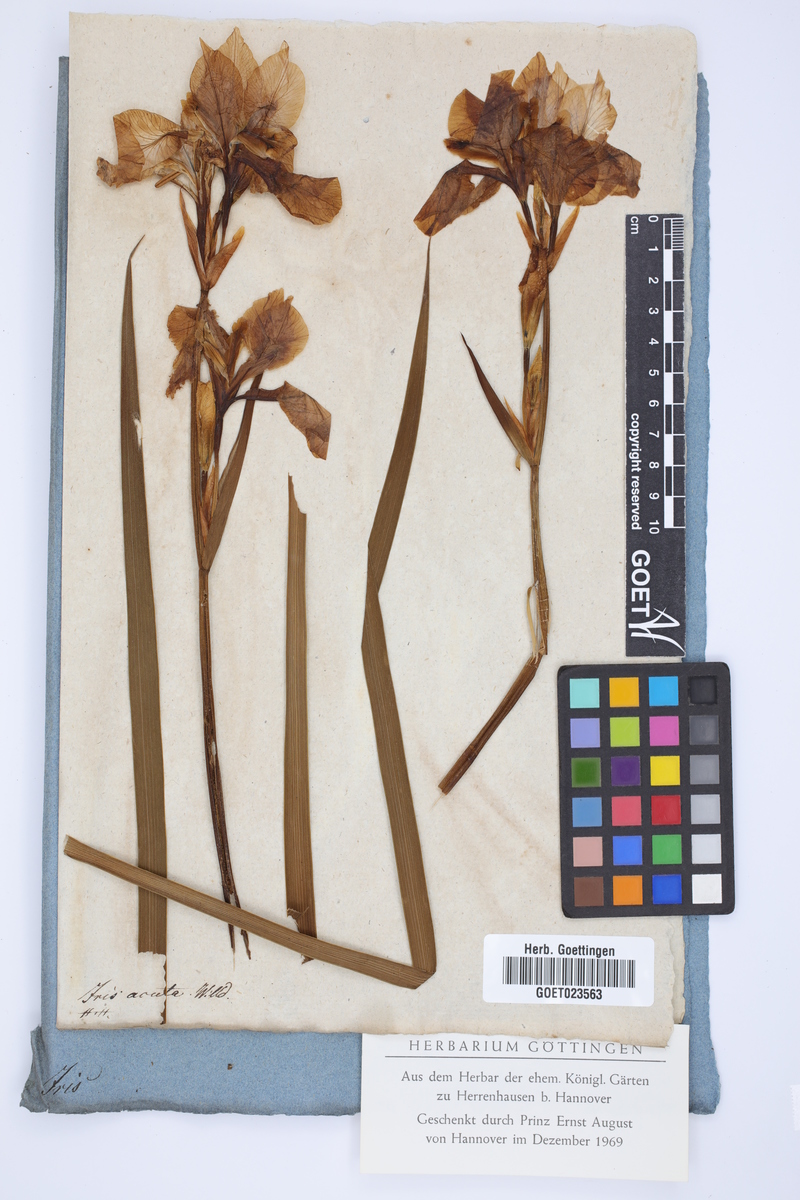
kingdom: Plantae
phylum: Tracheophyta
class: Liliopsida
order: Asparagales
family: Iridaceae
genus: Iris
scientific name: Iris sibirica
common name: Siberian iris
